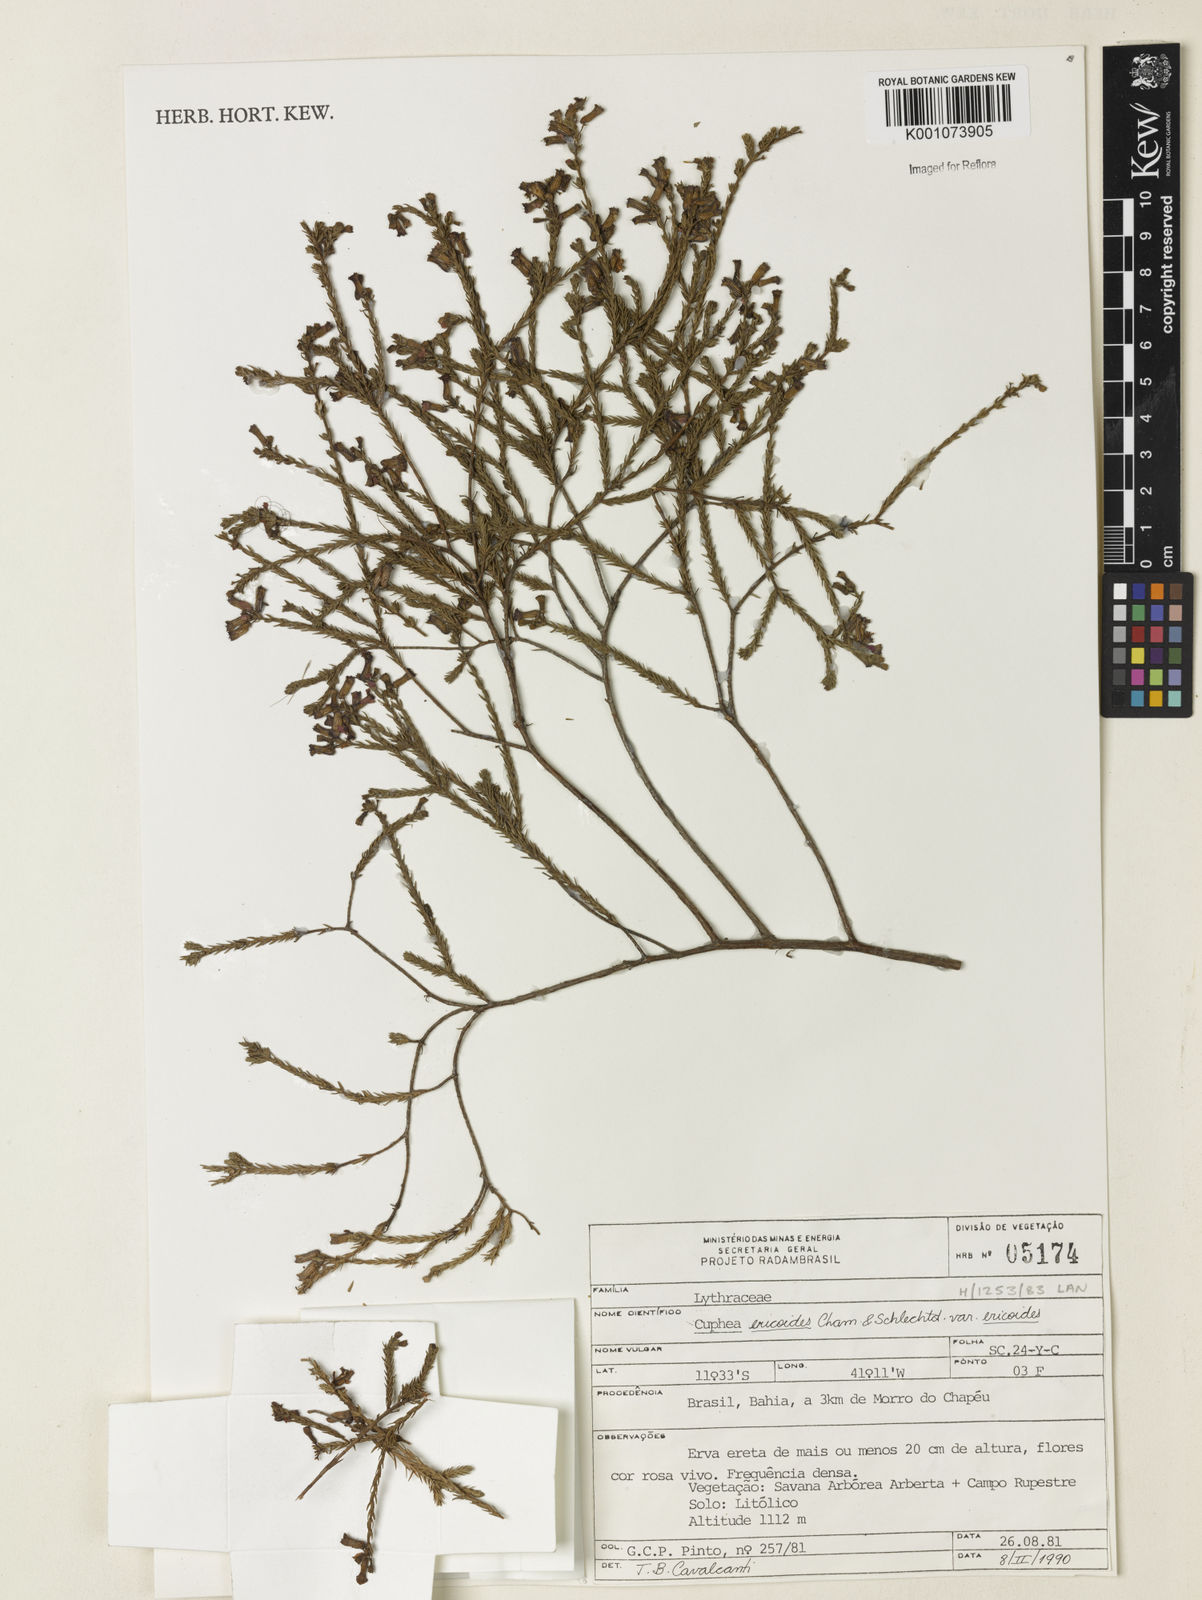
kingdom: Plantae
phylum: Tracheophyta
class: Magnoliopsida
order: Myrtales
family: Lythraceae
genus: Cuphea
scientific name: Cuphea ericoides
